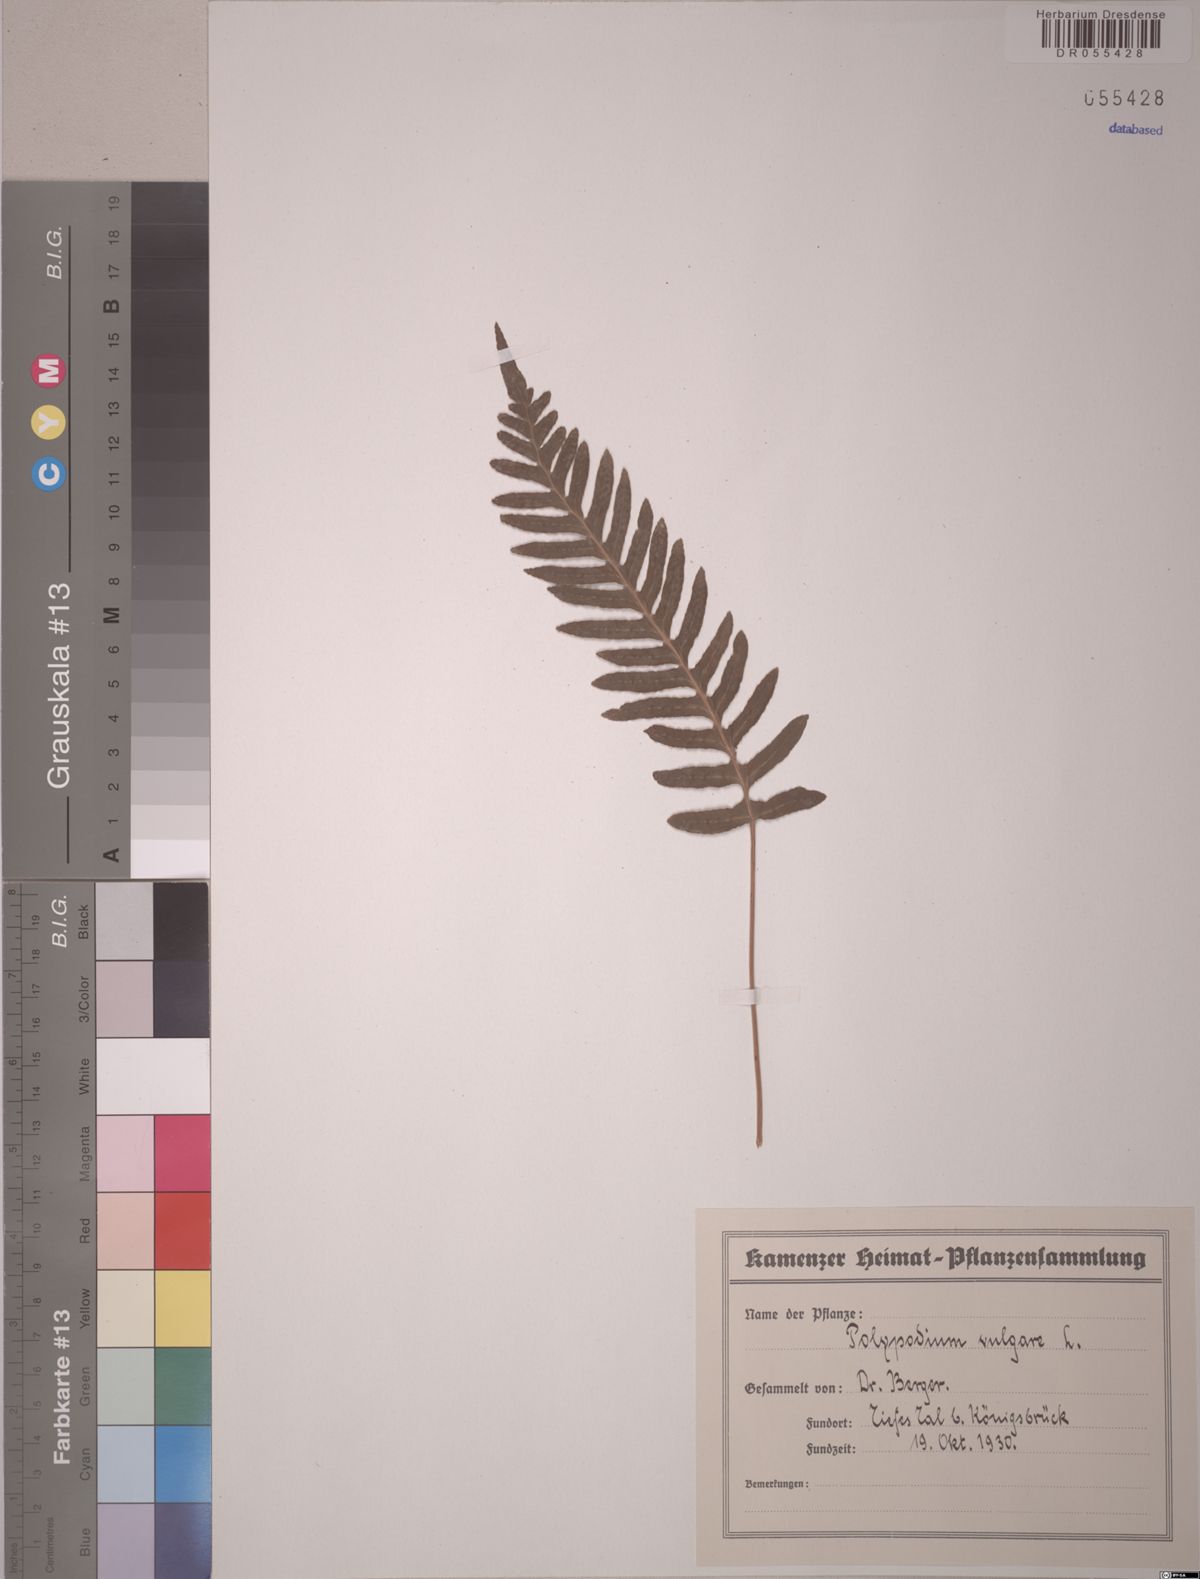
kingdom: Plantae
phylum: Tracheophyta
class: Polypodiopsida
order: Polypodiales
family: Polypodiaceae
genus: Polypodium
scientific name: Polypodium vulgare
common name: Common polypody
